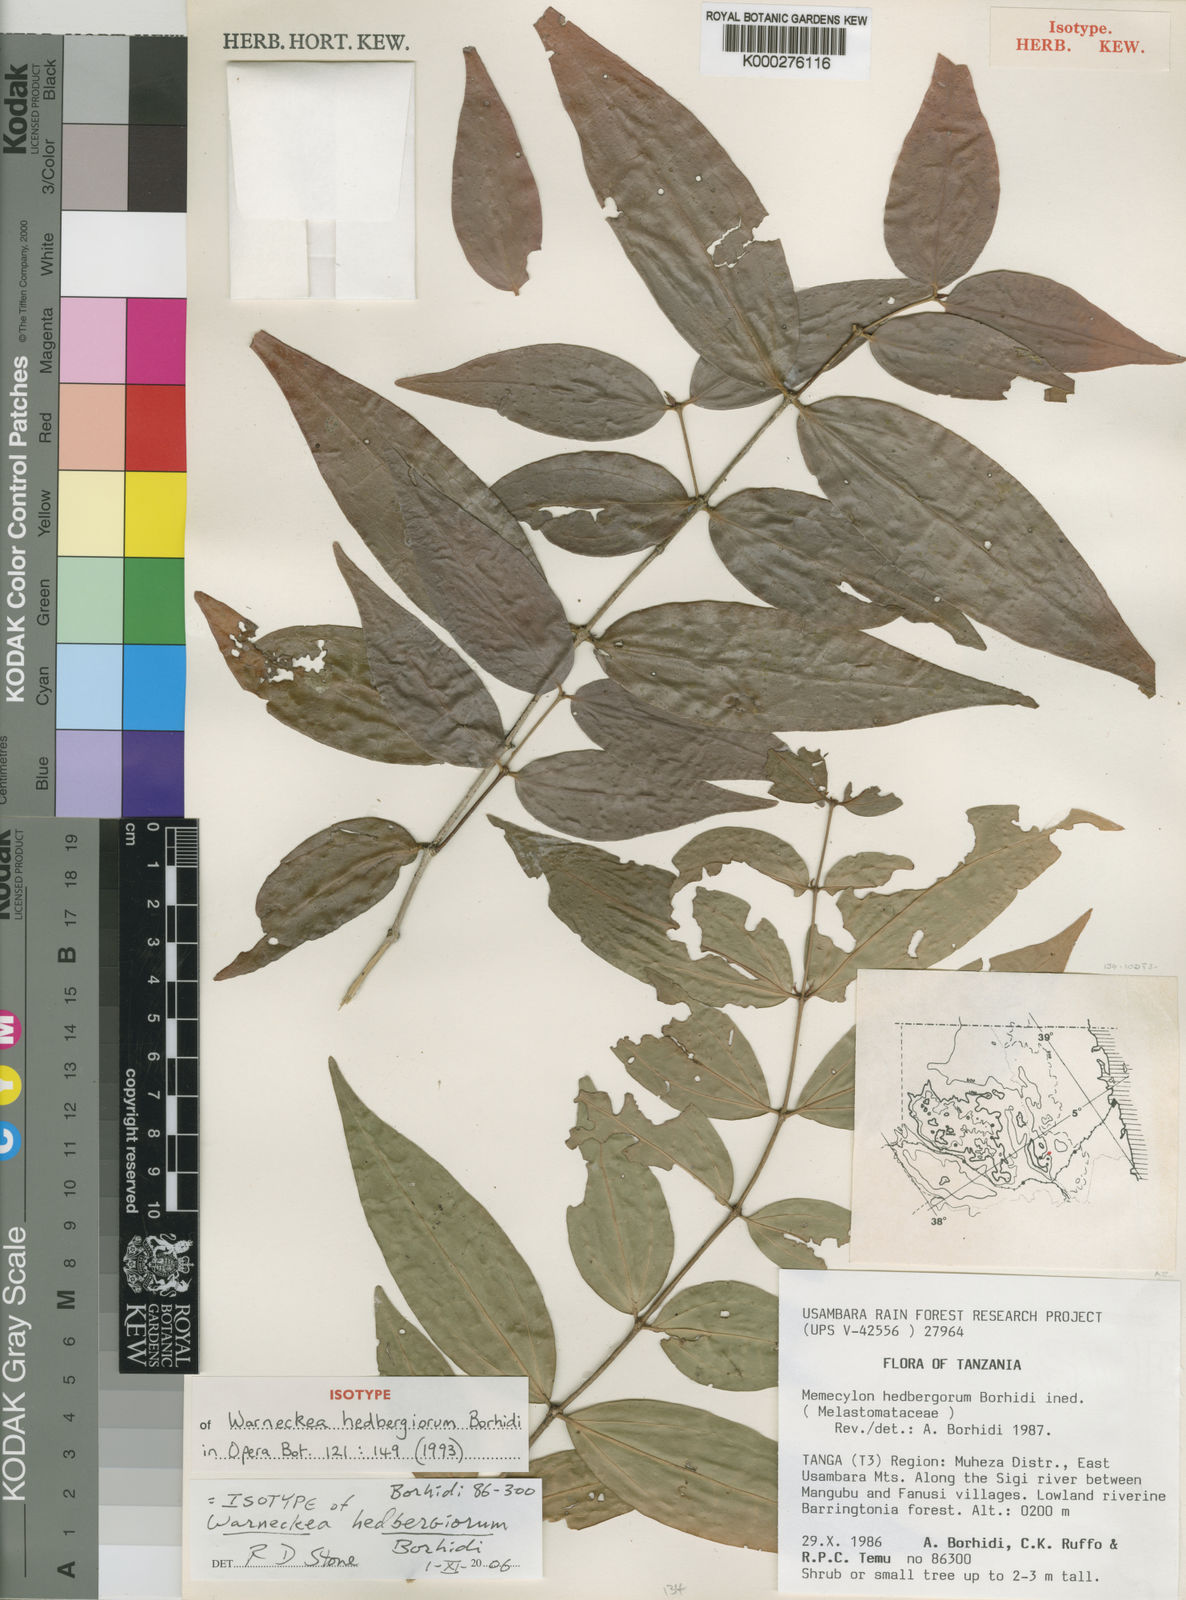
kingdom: Plantae
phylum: Tracheophyta
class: Magnoliopsida
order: Myrtales
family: Melastomataceae
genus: Warneckea
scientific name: Warneckea hedbergiorum
